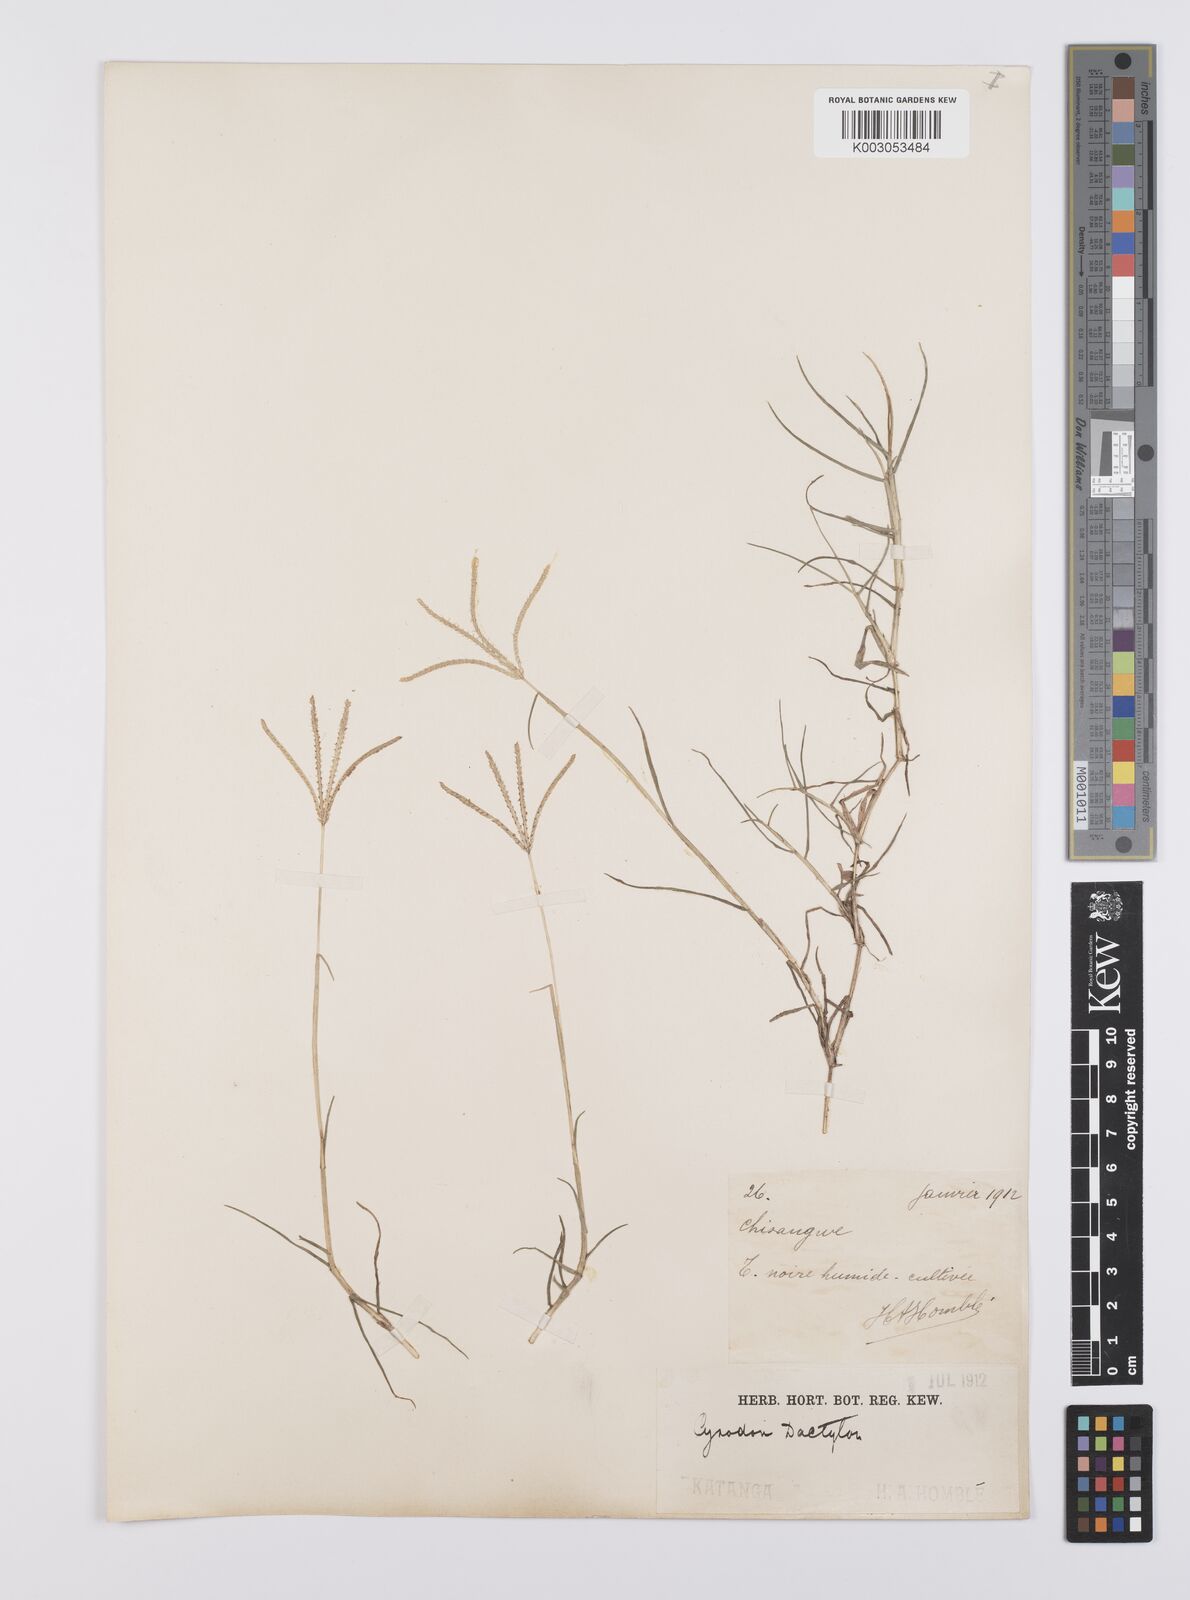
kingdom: Plantae
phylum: Tracheophyta
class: Liliopsida
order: Poales
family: Poaceae
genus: Cynodon
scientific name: Cynodon dactylon
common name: Bermuda grass
